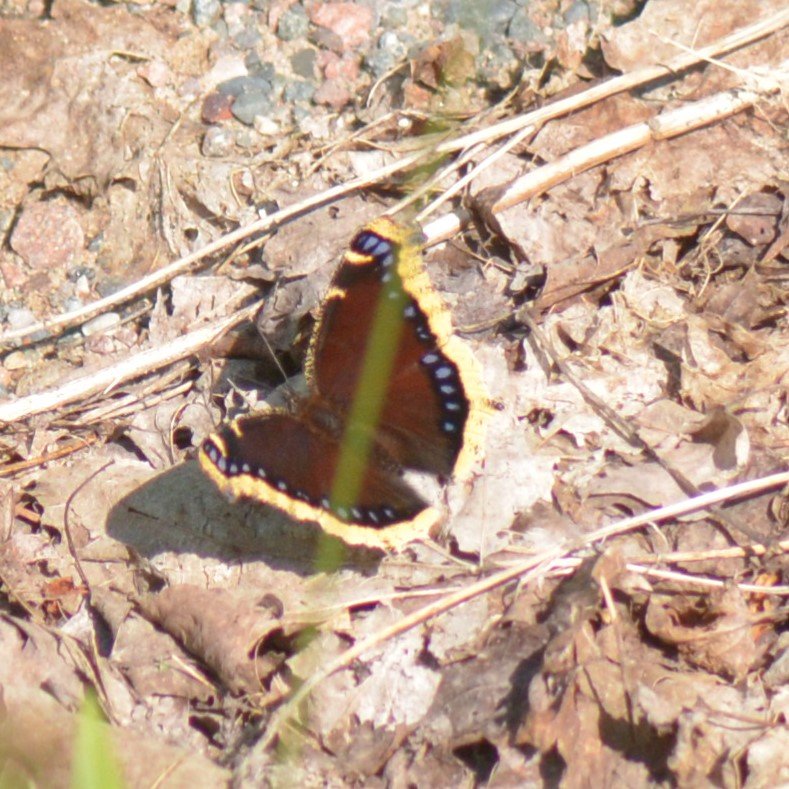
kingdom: Animalia
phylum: Arthropoda
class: Insecta
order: Lepidoptera
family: Nymphalidae
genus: Nymphalis
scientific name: Nymphalis antiopa
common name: Mourning Cloak
